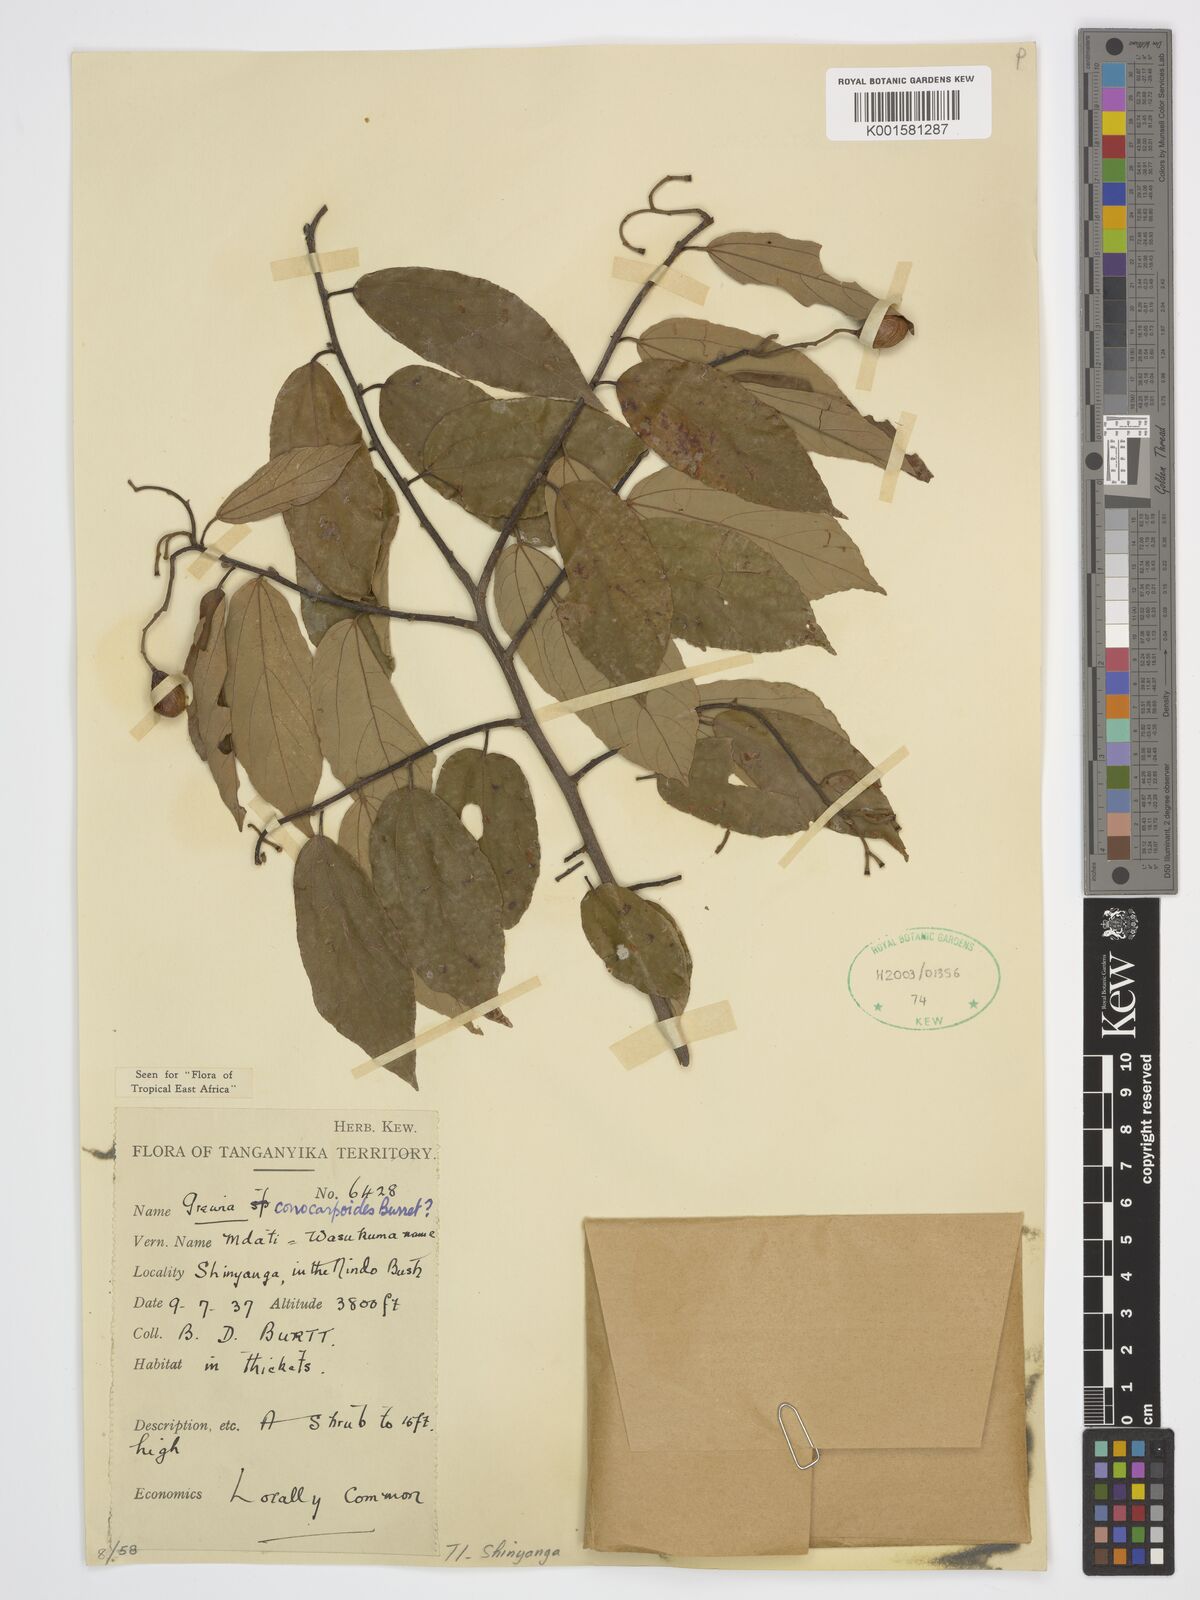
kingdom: Plantae
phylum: Tracheophyta
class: Magnoliopsida
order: Malvales
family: Malvaceae
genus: Microcos
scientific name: Microcos conocarpoides
